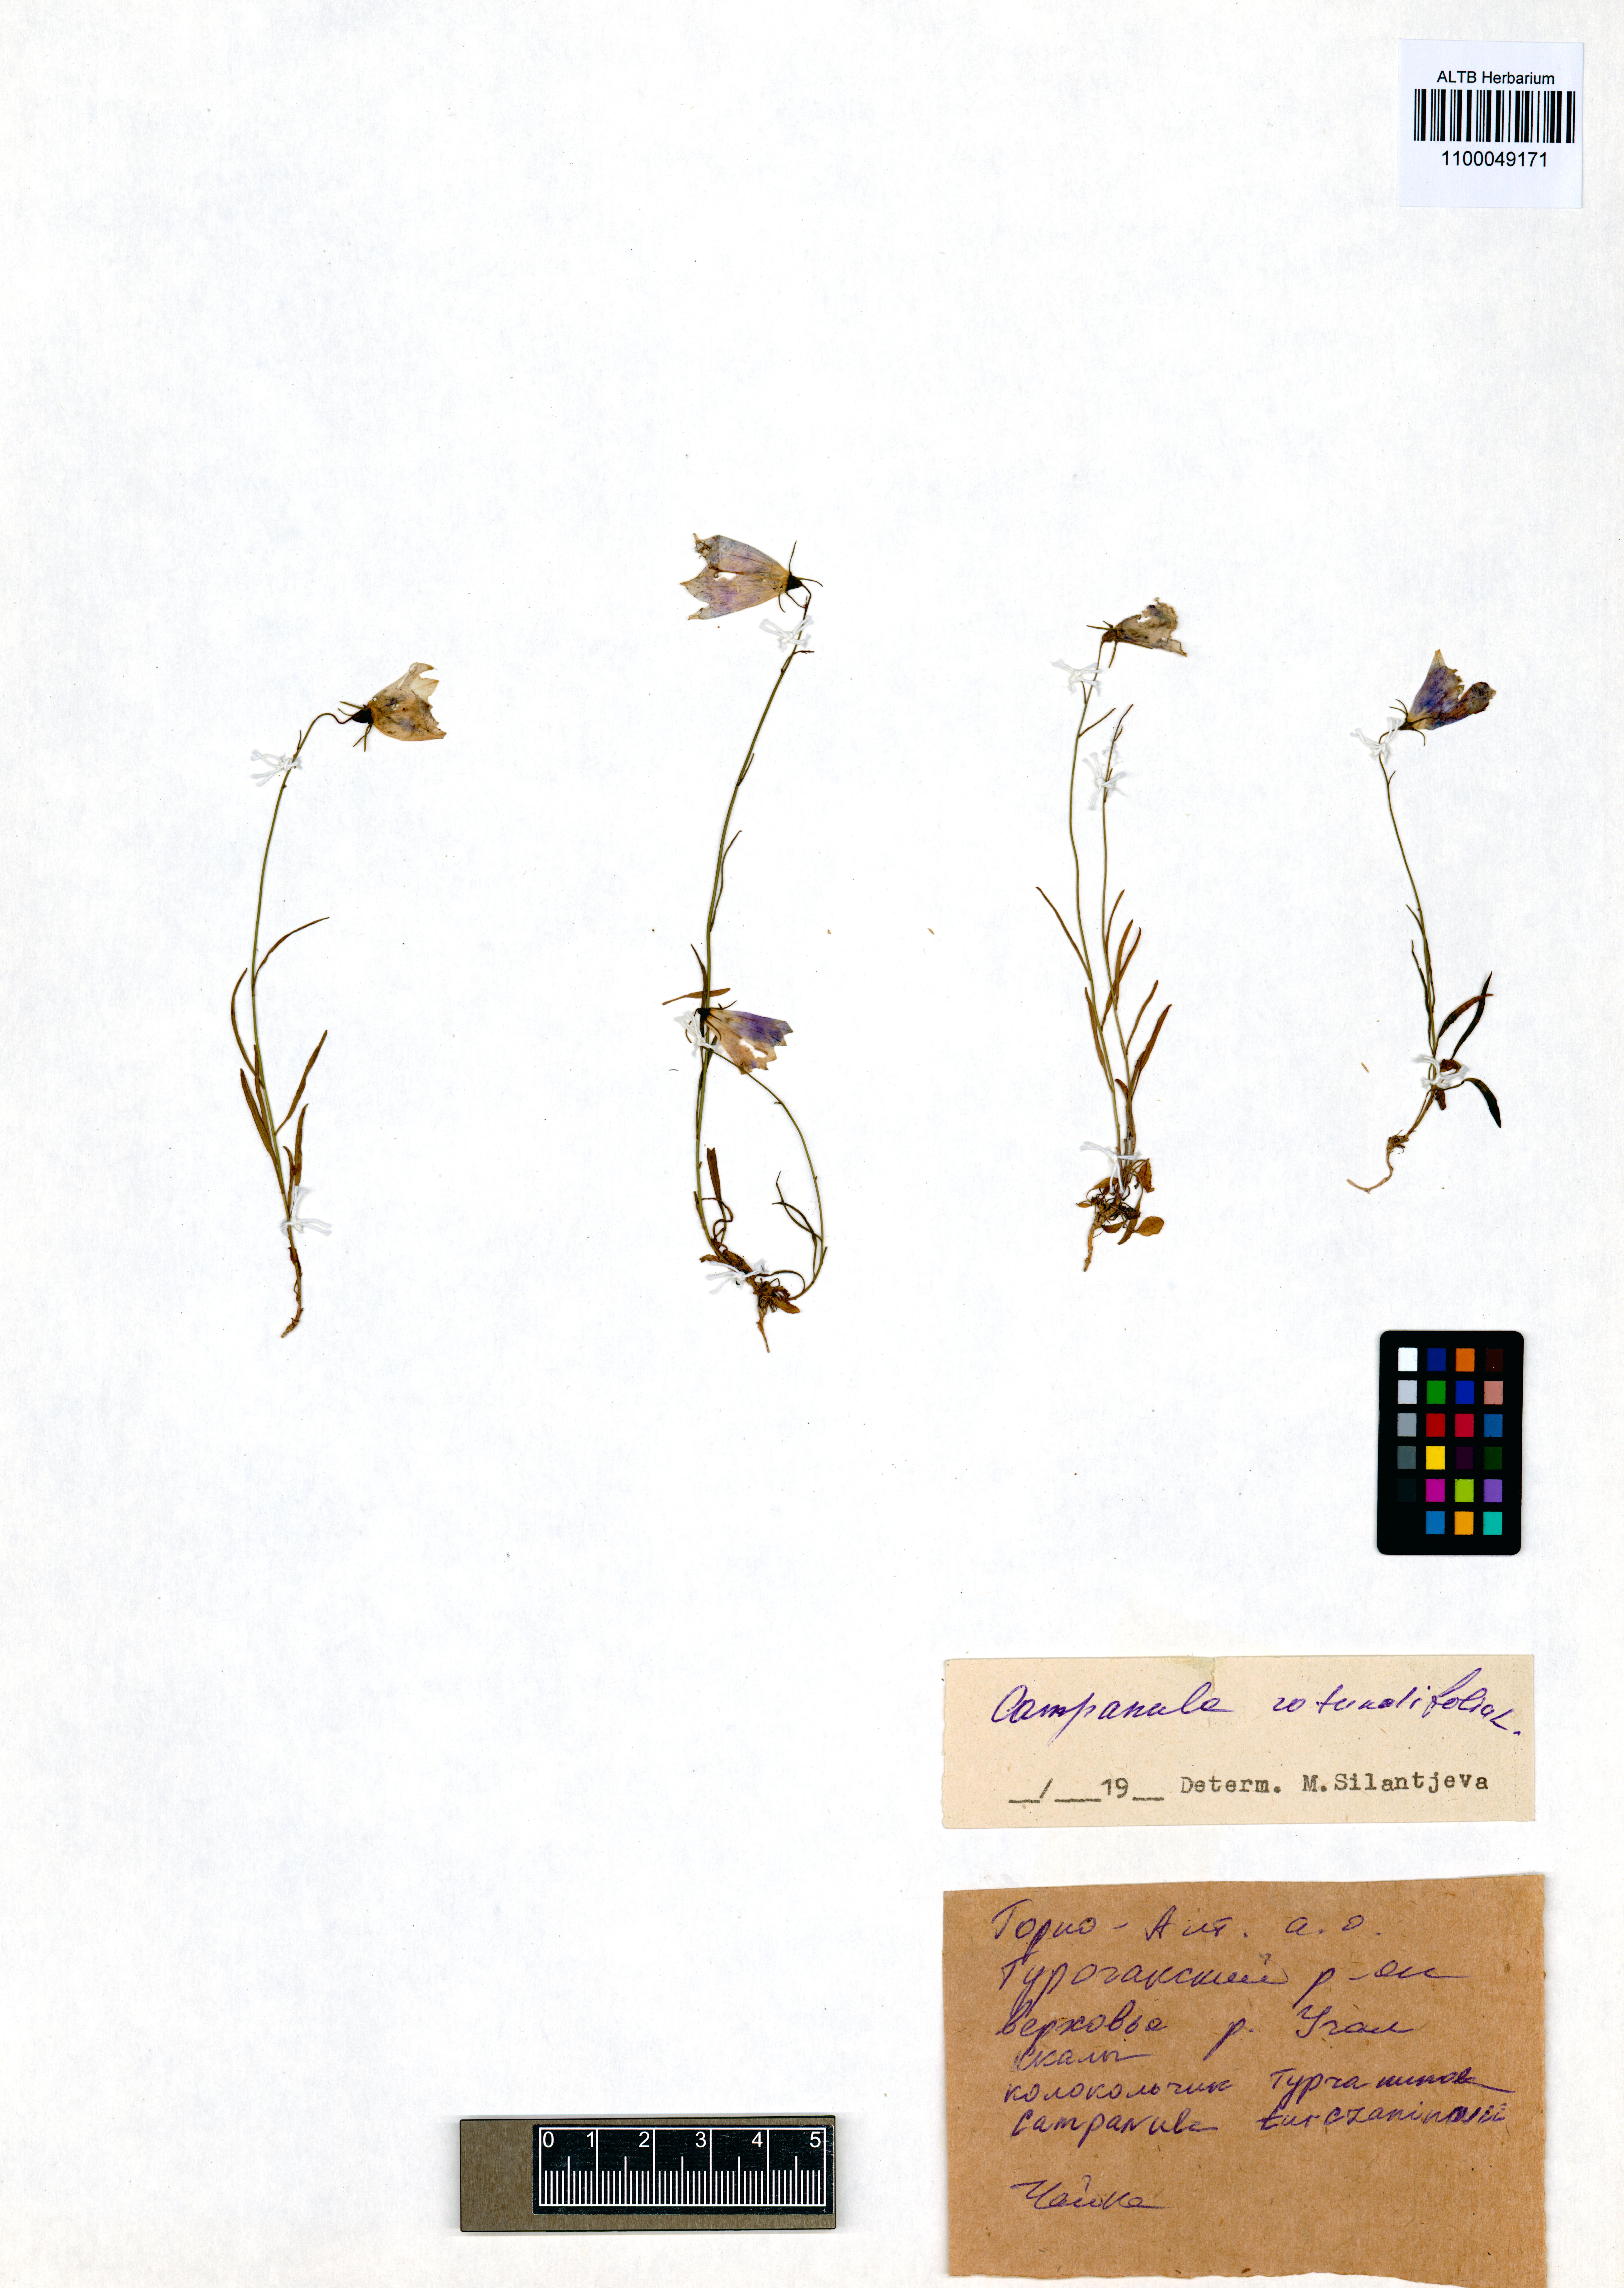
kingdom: Plantae
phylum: Tracheophyta
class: Magnoliopsida
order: Asterales
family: Campanulaceae
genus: Campanula
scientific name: Campanula rotundifolia
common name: Harebell
